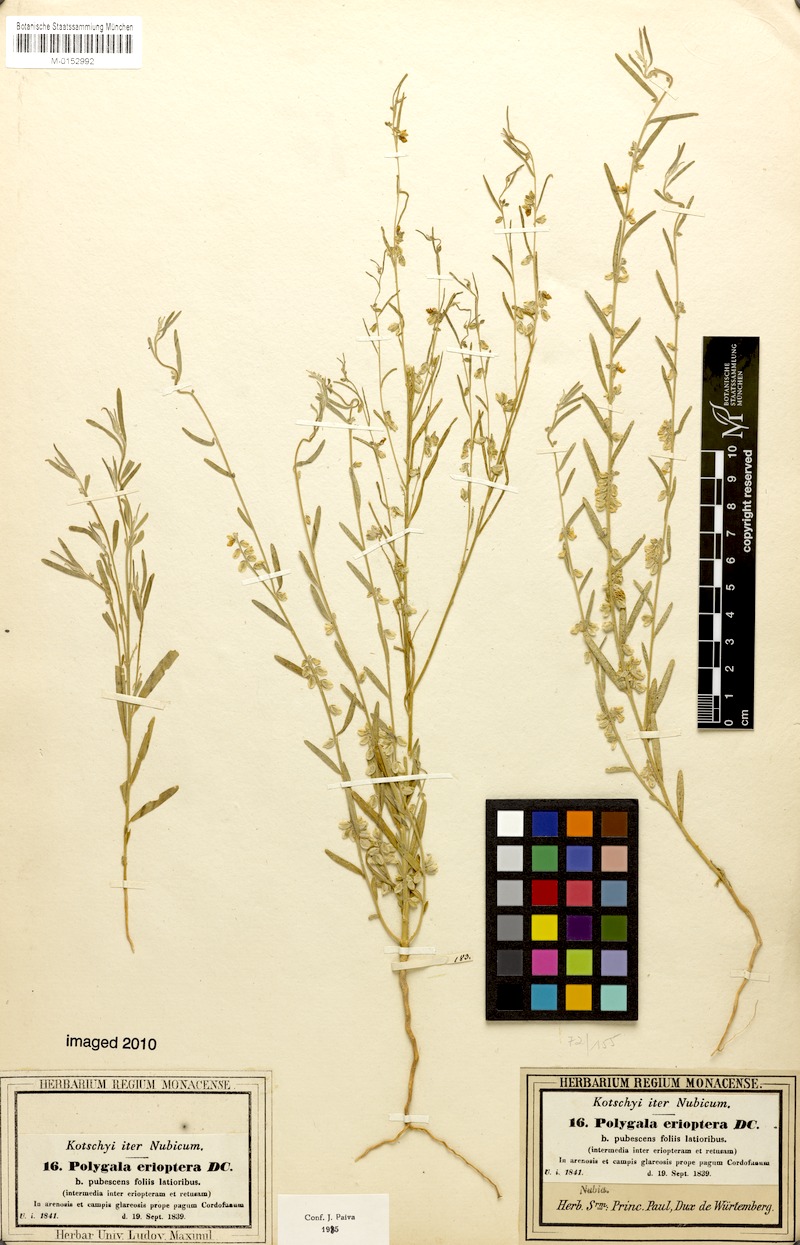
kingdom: Plantae
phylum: Tracheophyta
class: Magnoliopsida
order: Fabales
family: Polygalaceae
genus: Polygala
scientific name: Polygala erioptera
